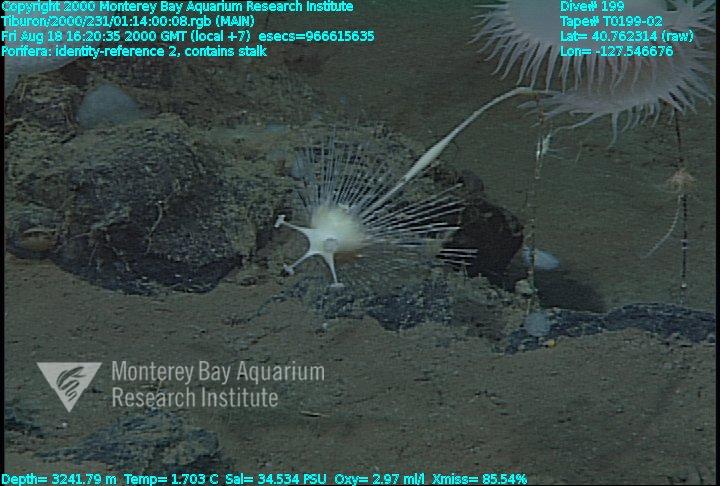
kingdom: Animalia
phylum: Porifera
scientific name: Porifera
